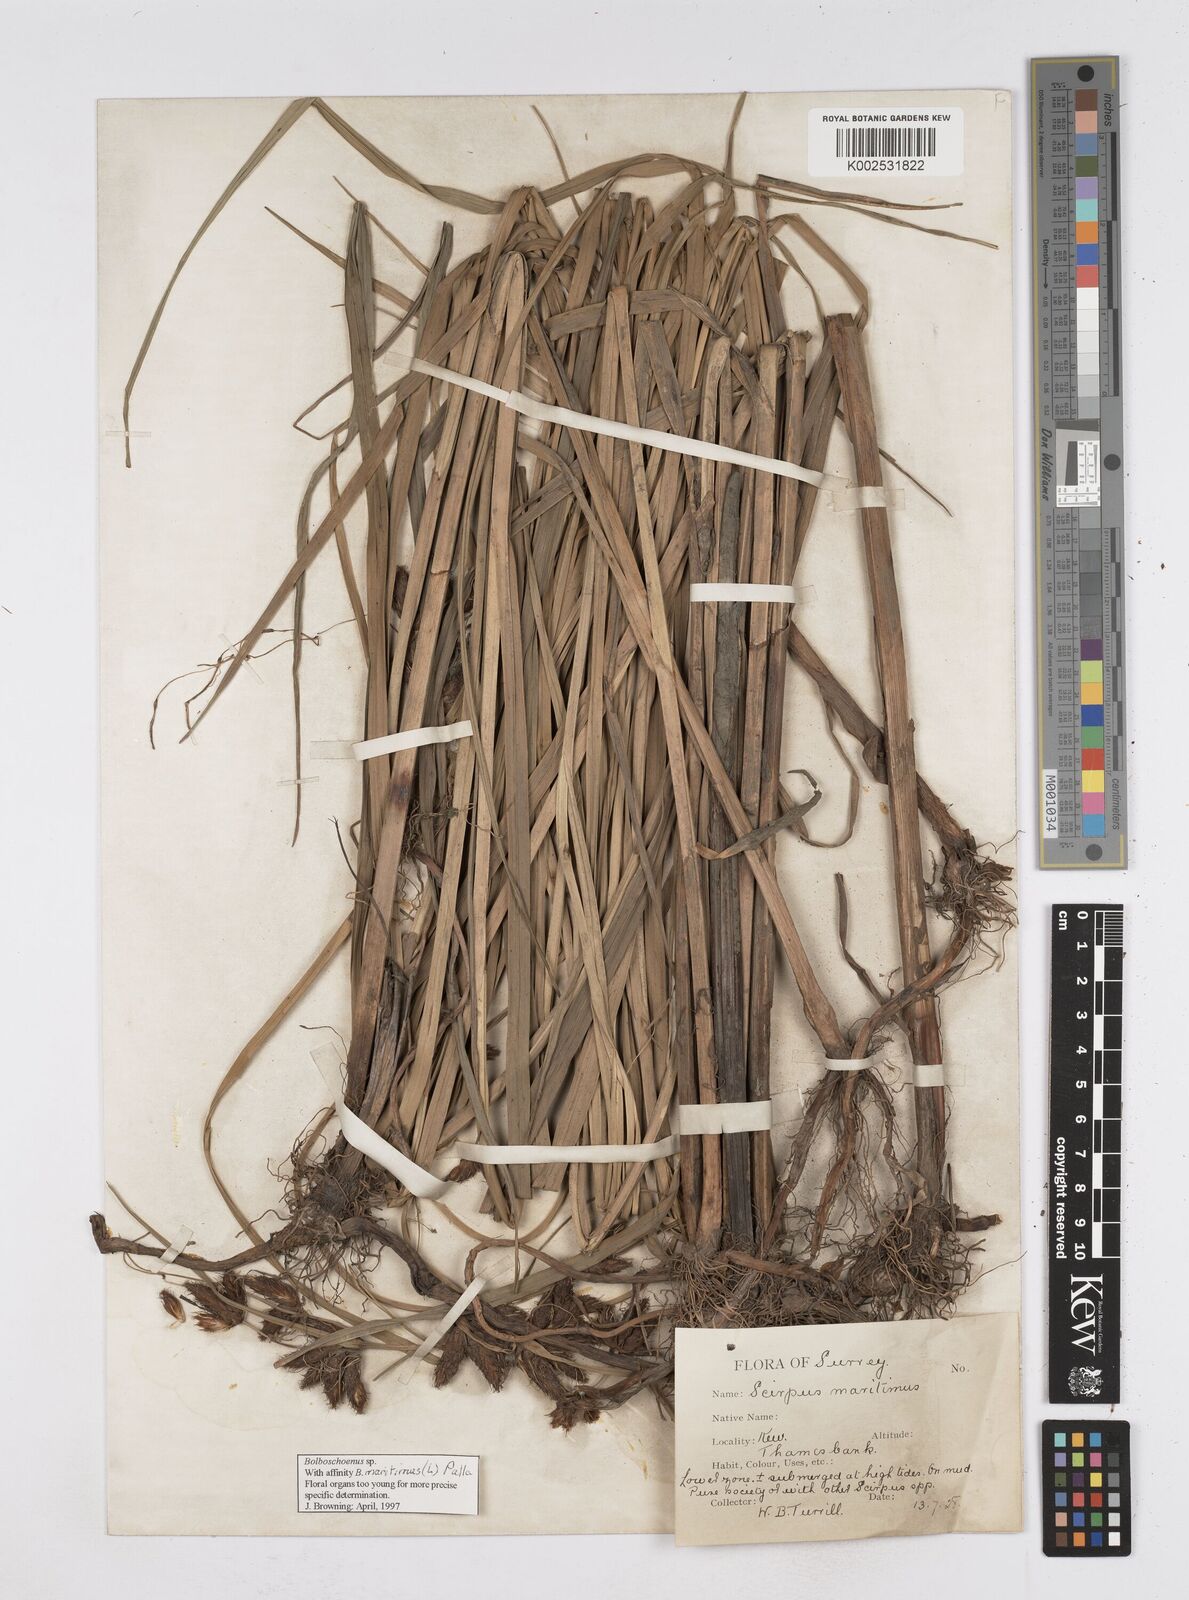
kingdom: Plantae
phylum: Tracheophyta
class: Liliopsida
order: Poales
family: Cyperaceae
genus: Bolboschoenus
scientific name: Bolboschoenus maritimus
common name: Sea club-rush
